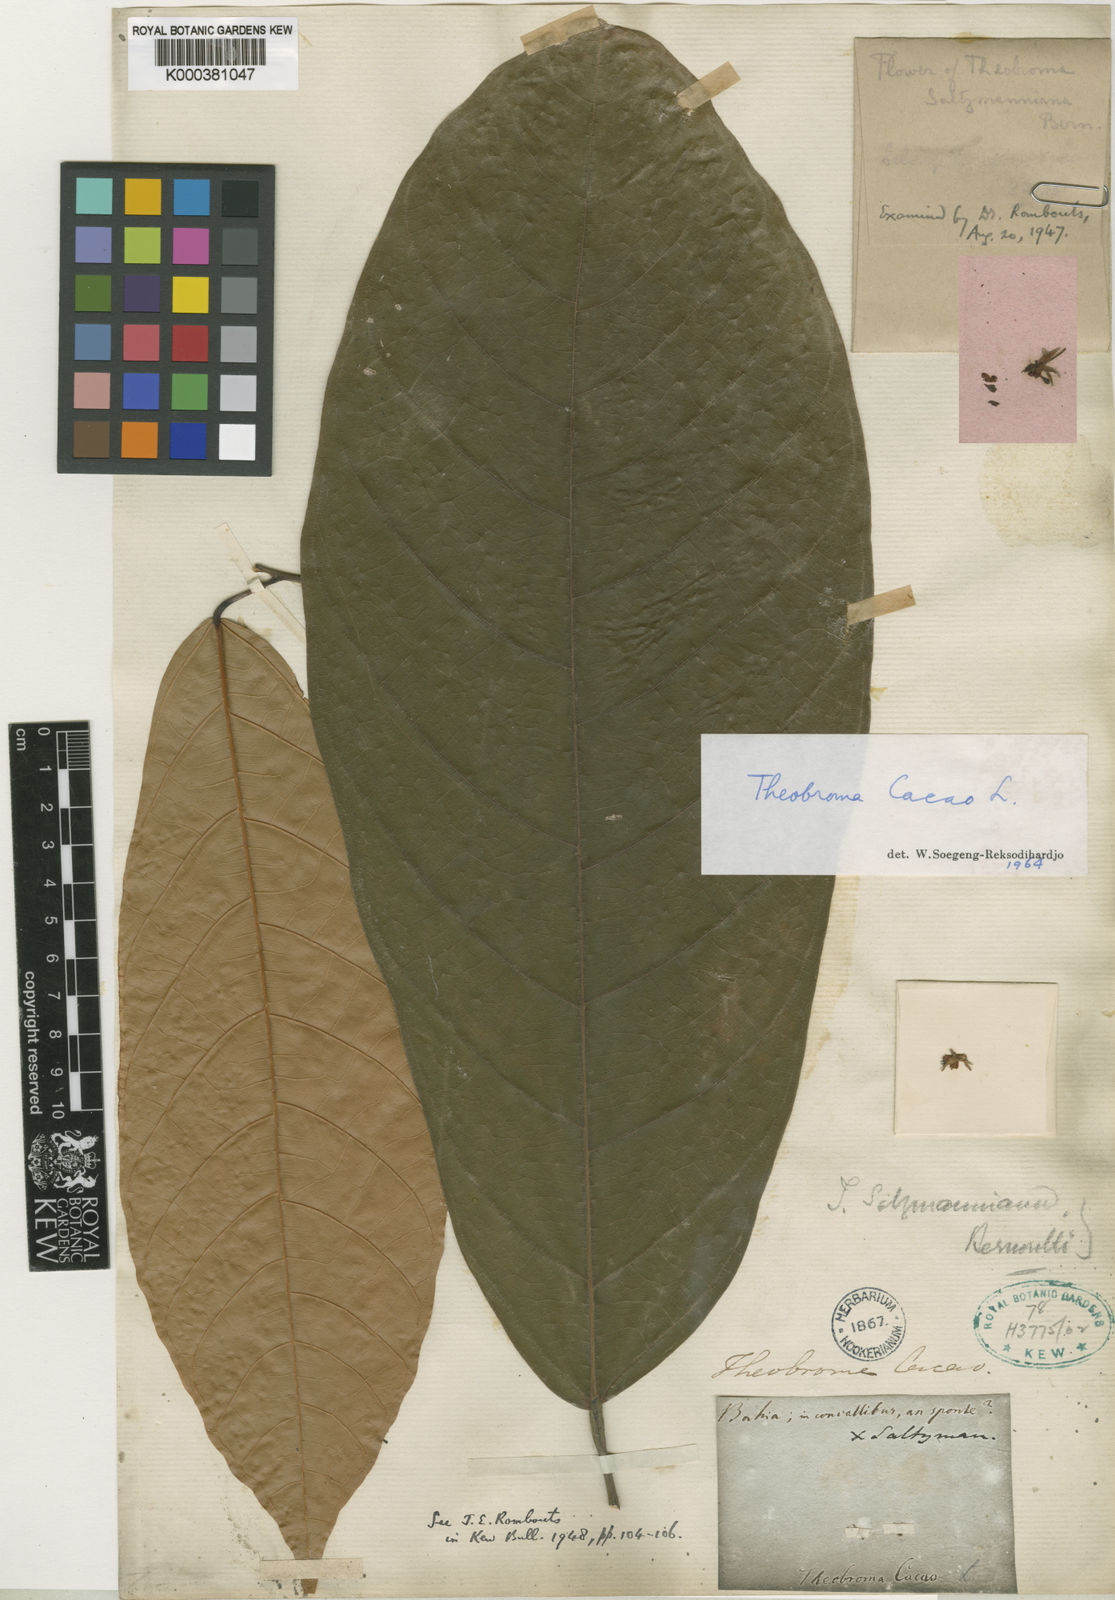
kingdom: Plantae
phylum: Tracheophyta
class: Magnoliopsida
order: Malvales
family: Malvaceae
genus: Theobroma
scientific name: Theobroma cacao
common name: Cocoa
